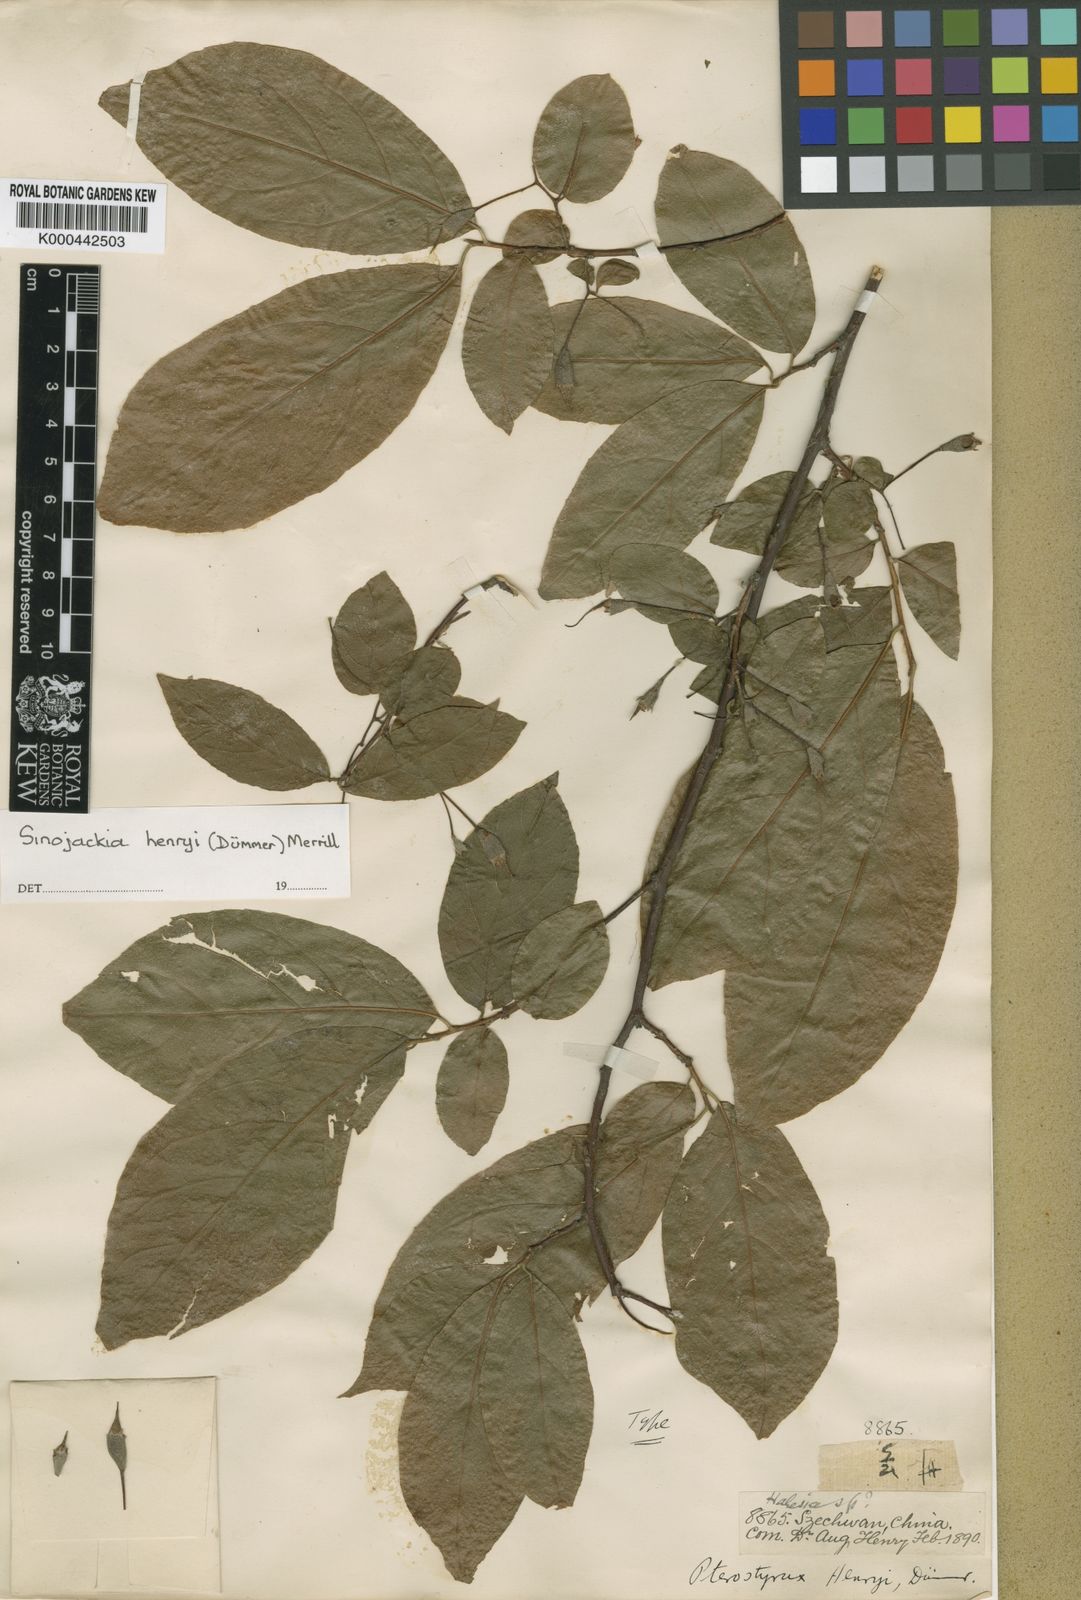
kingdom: Plantae
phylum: Tracheophyta
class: Magnoliopsida
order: Ericales
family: Styracaceae
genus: Sinojackia
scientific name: Sinojackia henryi
